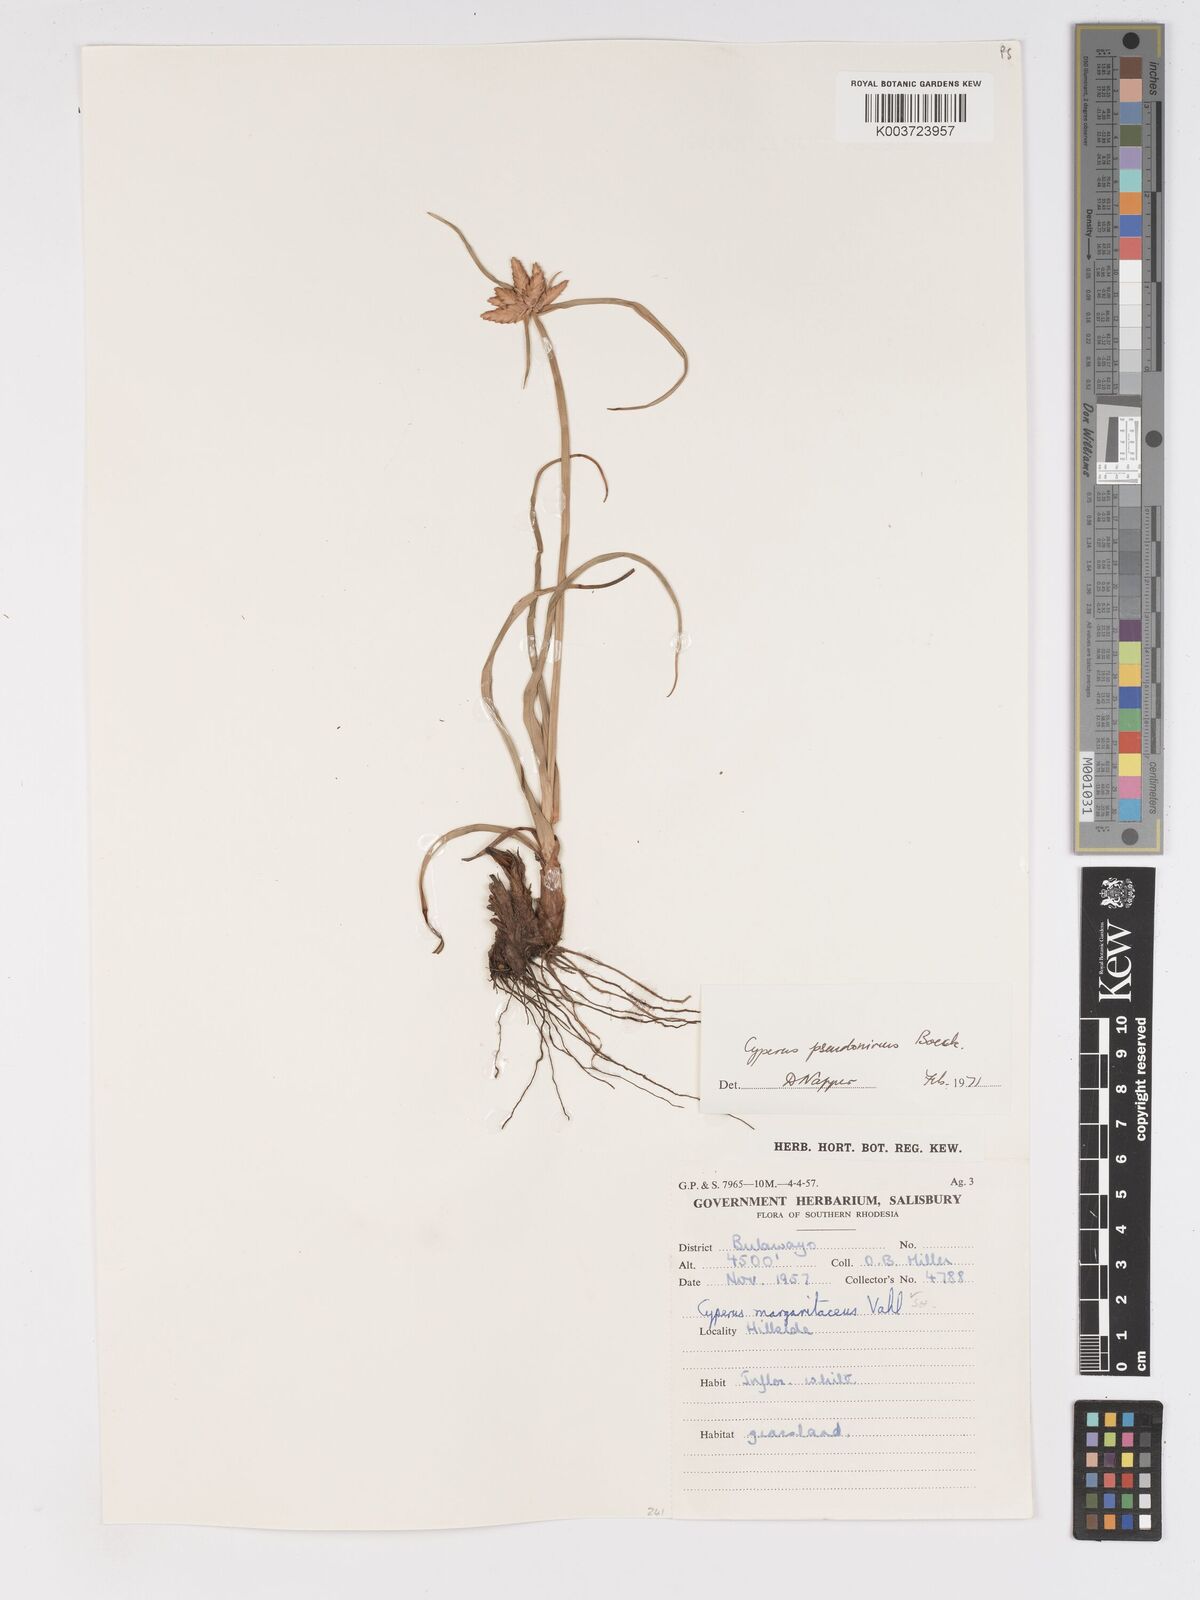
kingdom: Plantae
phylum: Tracheophyta
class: Liliopsida
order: Poales
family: Cyperaceae
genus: Cyperus
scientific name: Cyperus margaritaceus
